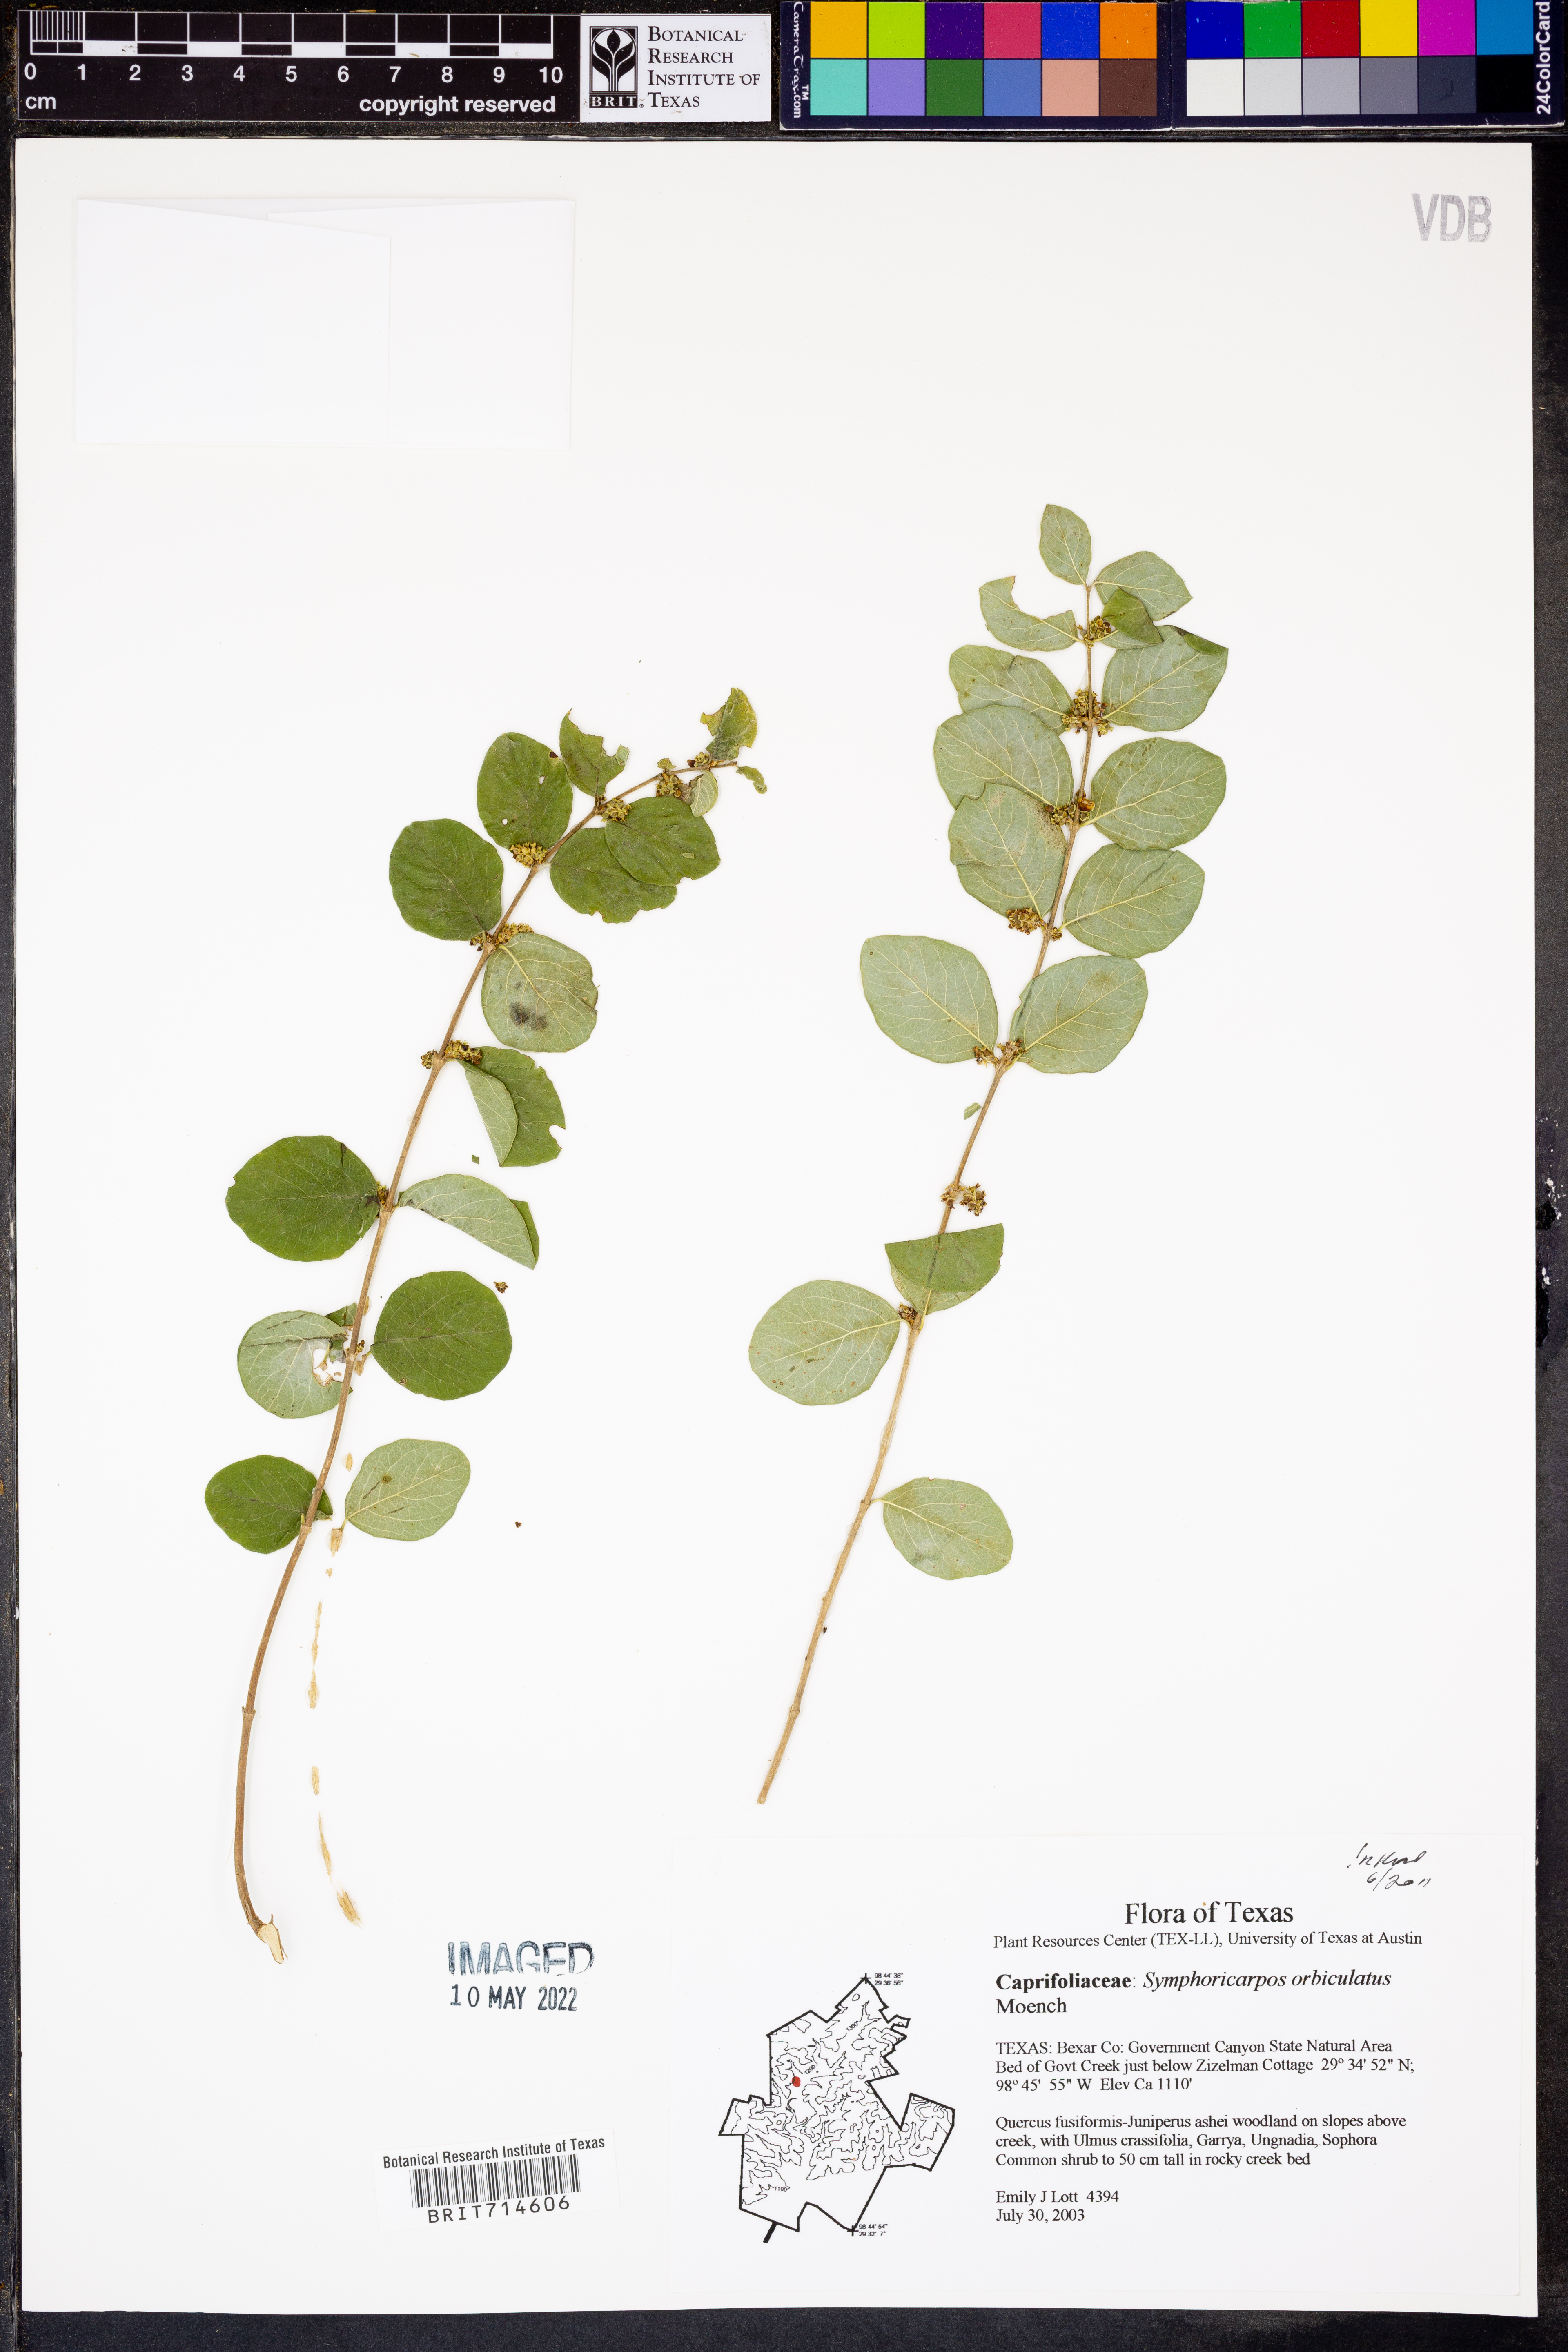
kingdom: Plantae
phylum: Tracheophyta
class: Magnoliopsida
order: Dipsacales
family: Caprifoliaceae
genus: Symphoricarpos
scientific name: Symphoricarpos orbiculatus
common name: Coralberry
